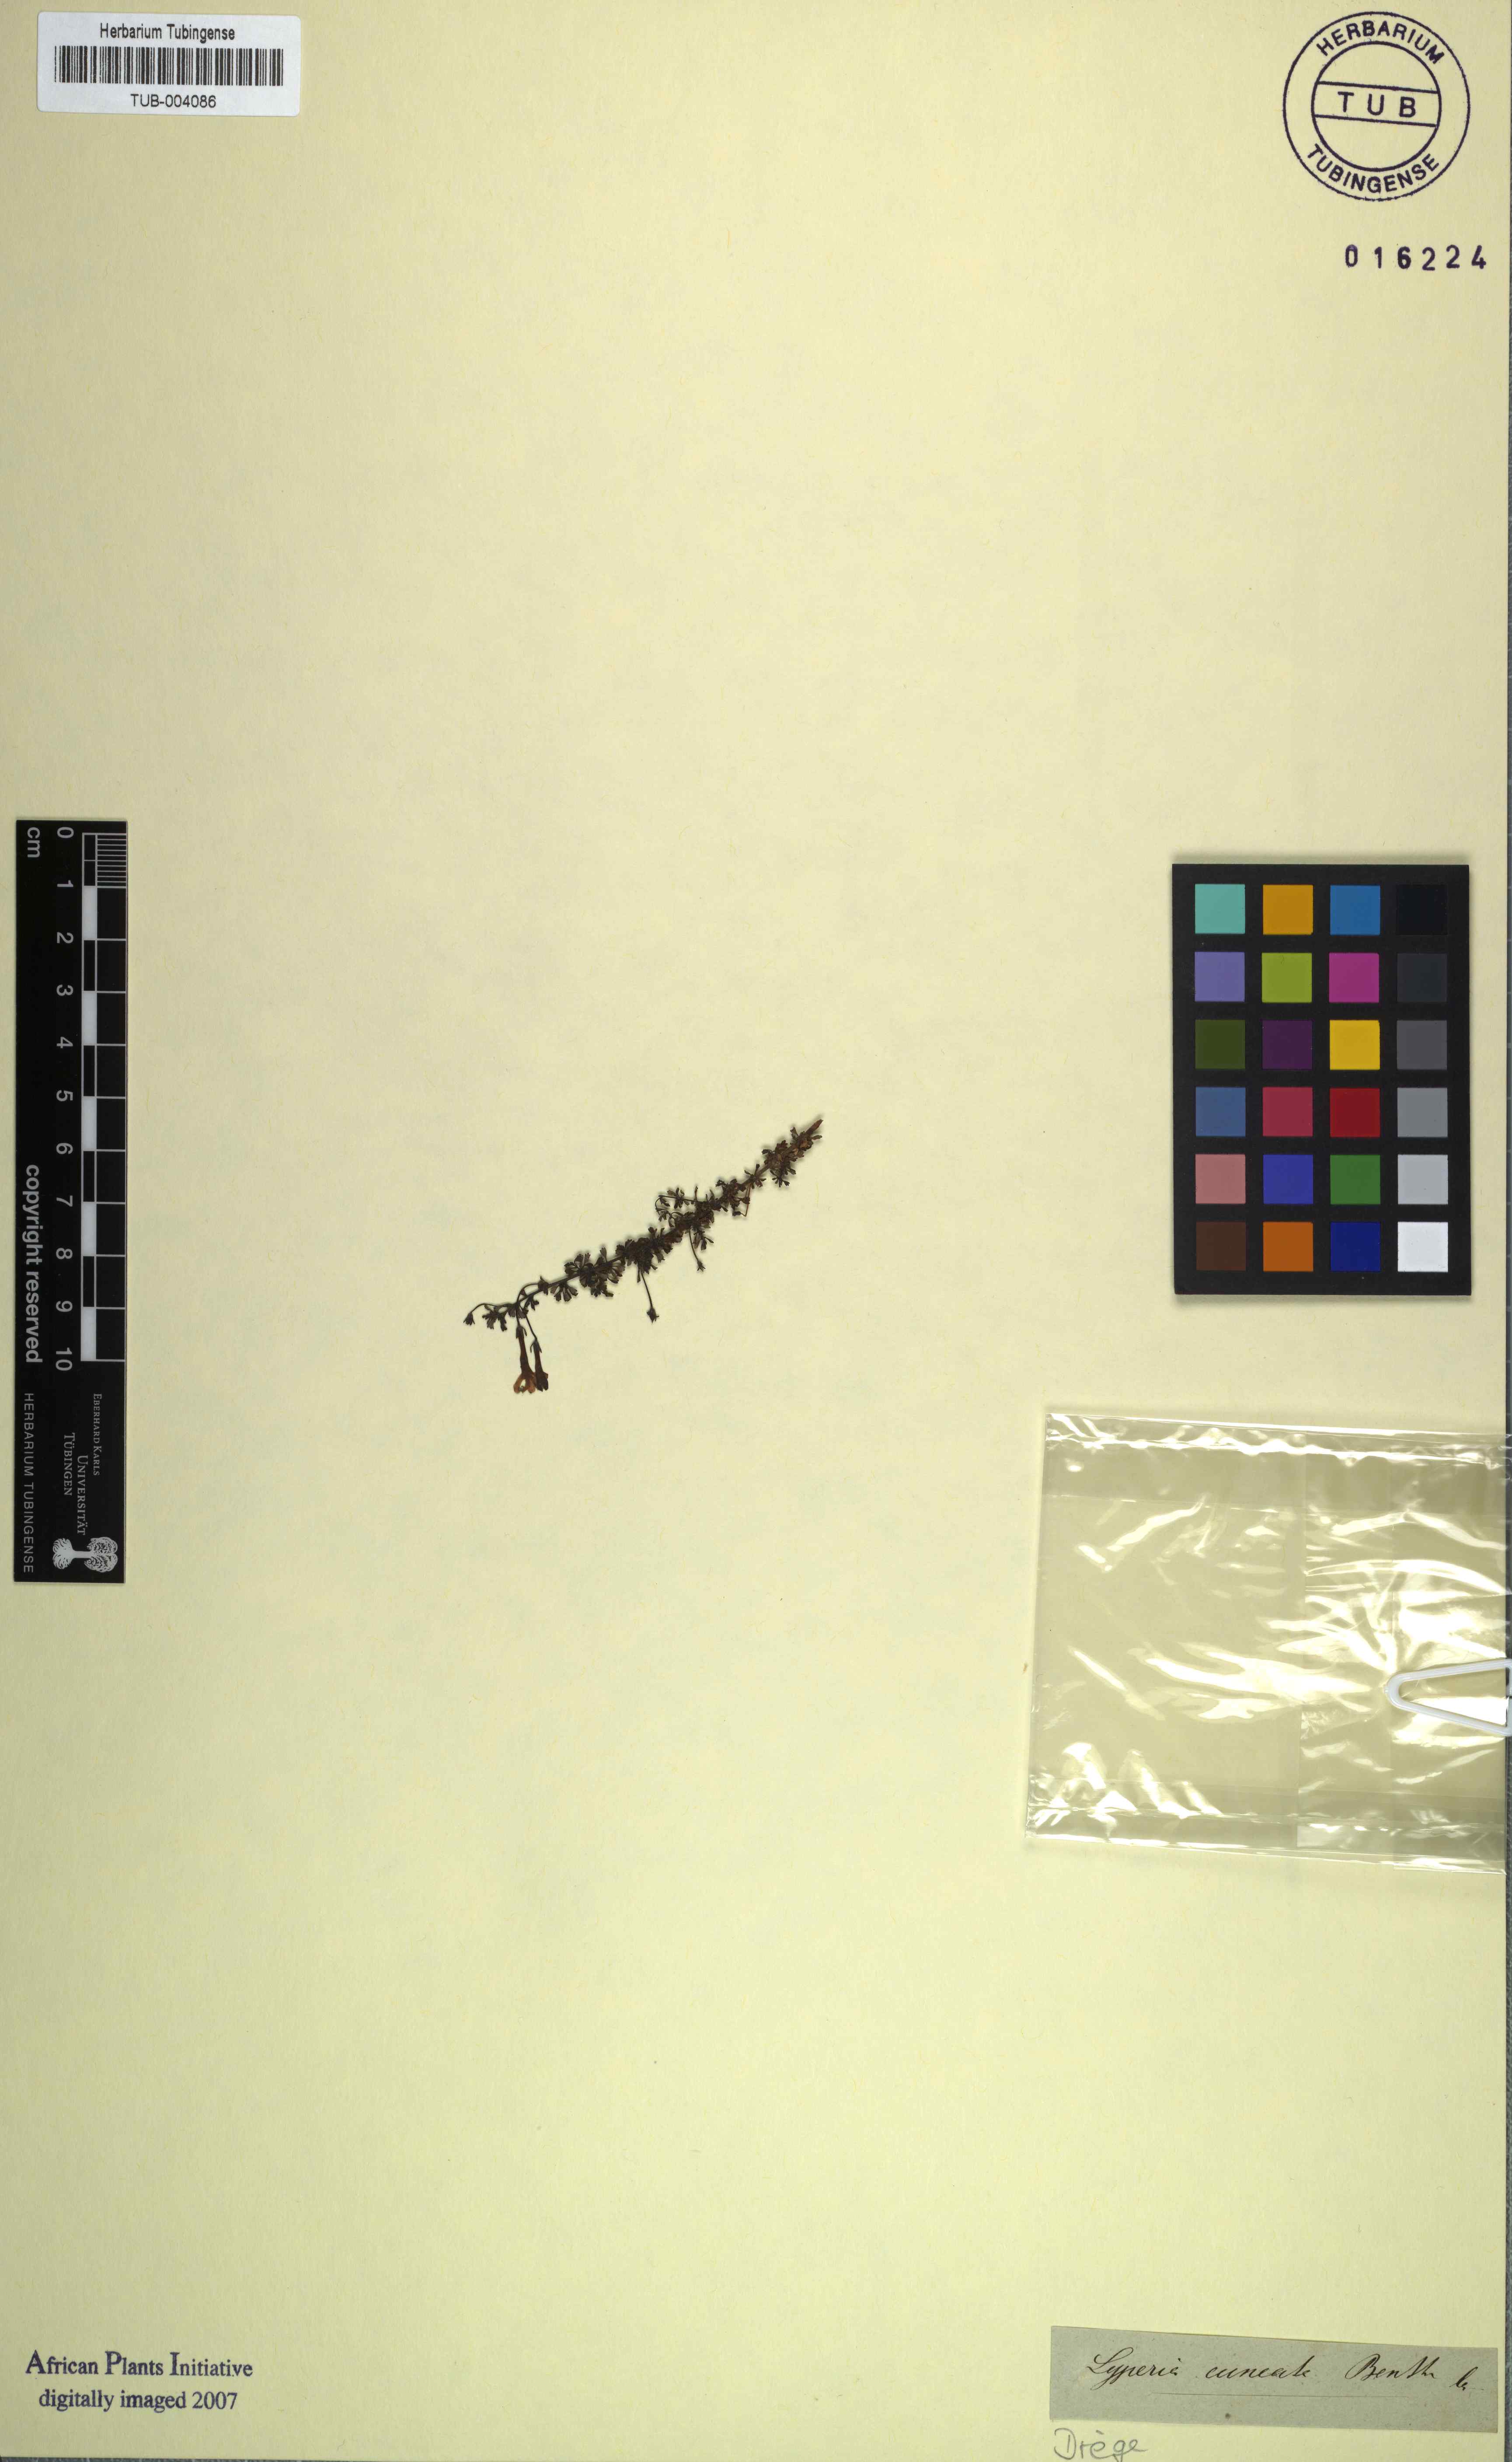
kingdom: Plantae
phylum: Tracheophyta
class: Magnoliopsida
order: Lamiales
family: Scrophulariaceae
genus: Chaenostoma
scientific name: Chaenostoma hispidum
